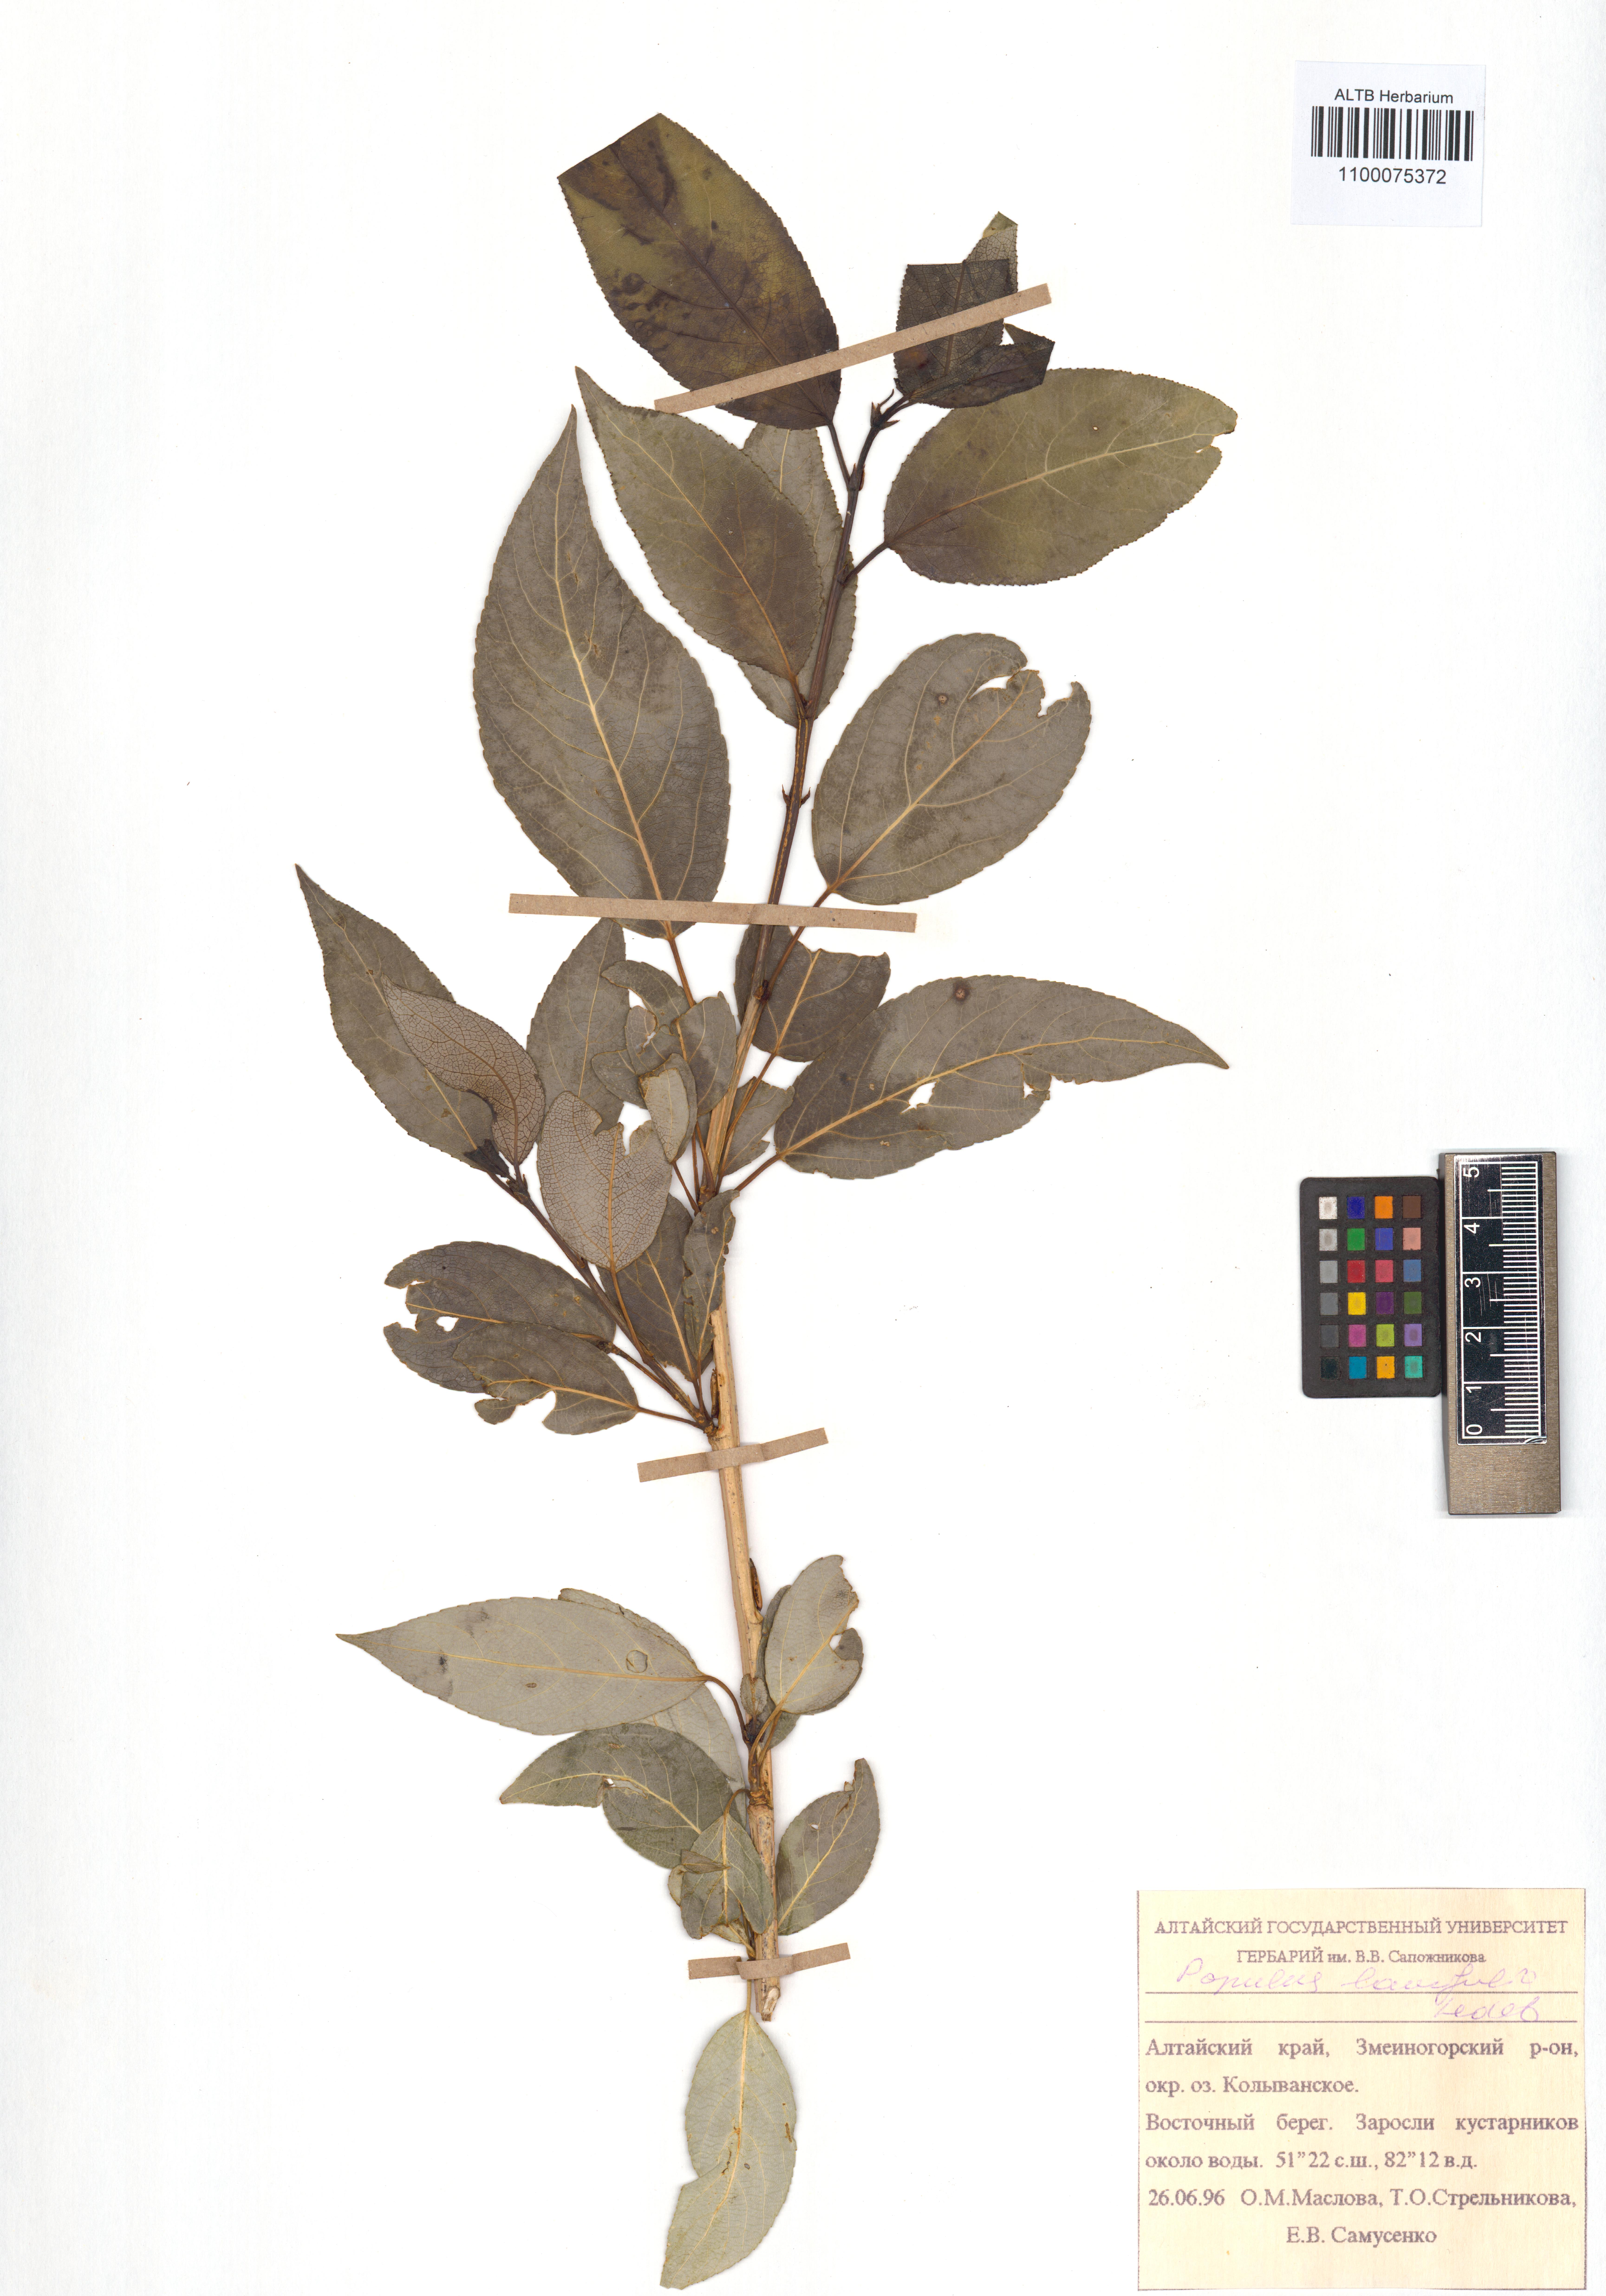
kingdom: Plantae
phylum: Tracheophyta
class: Magnoliopsida
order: Malpighiales
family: Salicaceae
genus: Populus
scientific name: Populus laurifolia
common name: Laurel-leaf poplar
